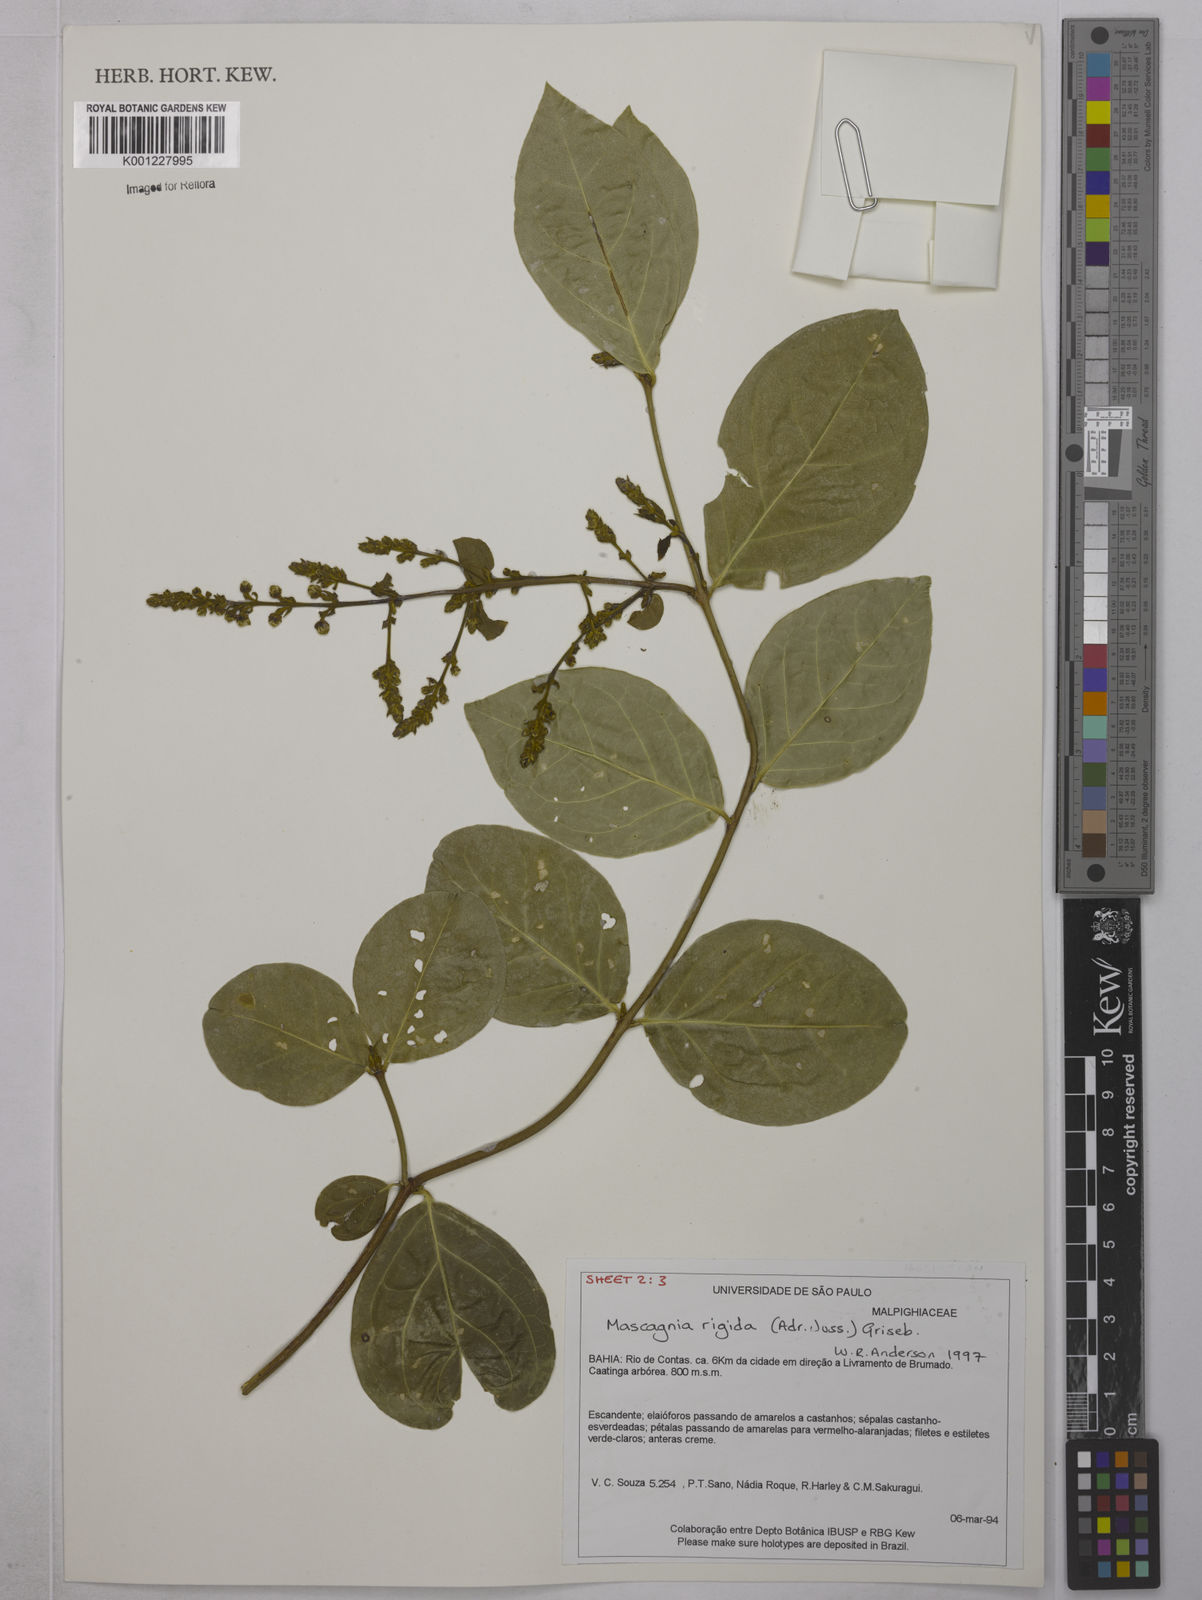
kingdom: Plantae
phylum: Tracheophyta
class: Magnoliopsida
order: Malpighiales
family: Malpighiaceae
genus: Amorimia
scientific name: Amorimia rigida
